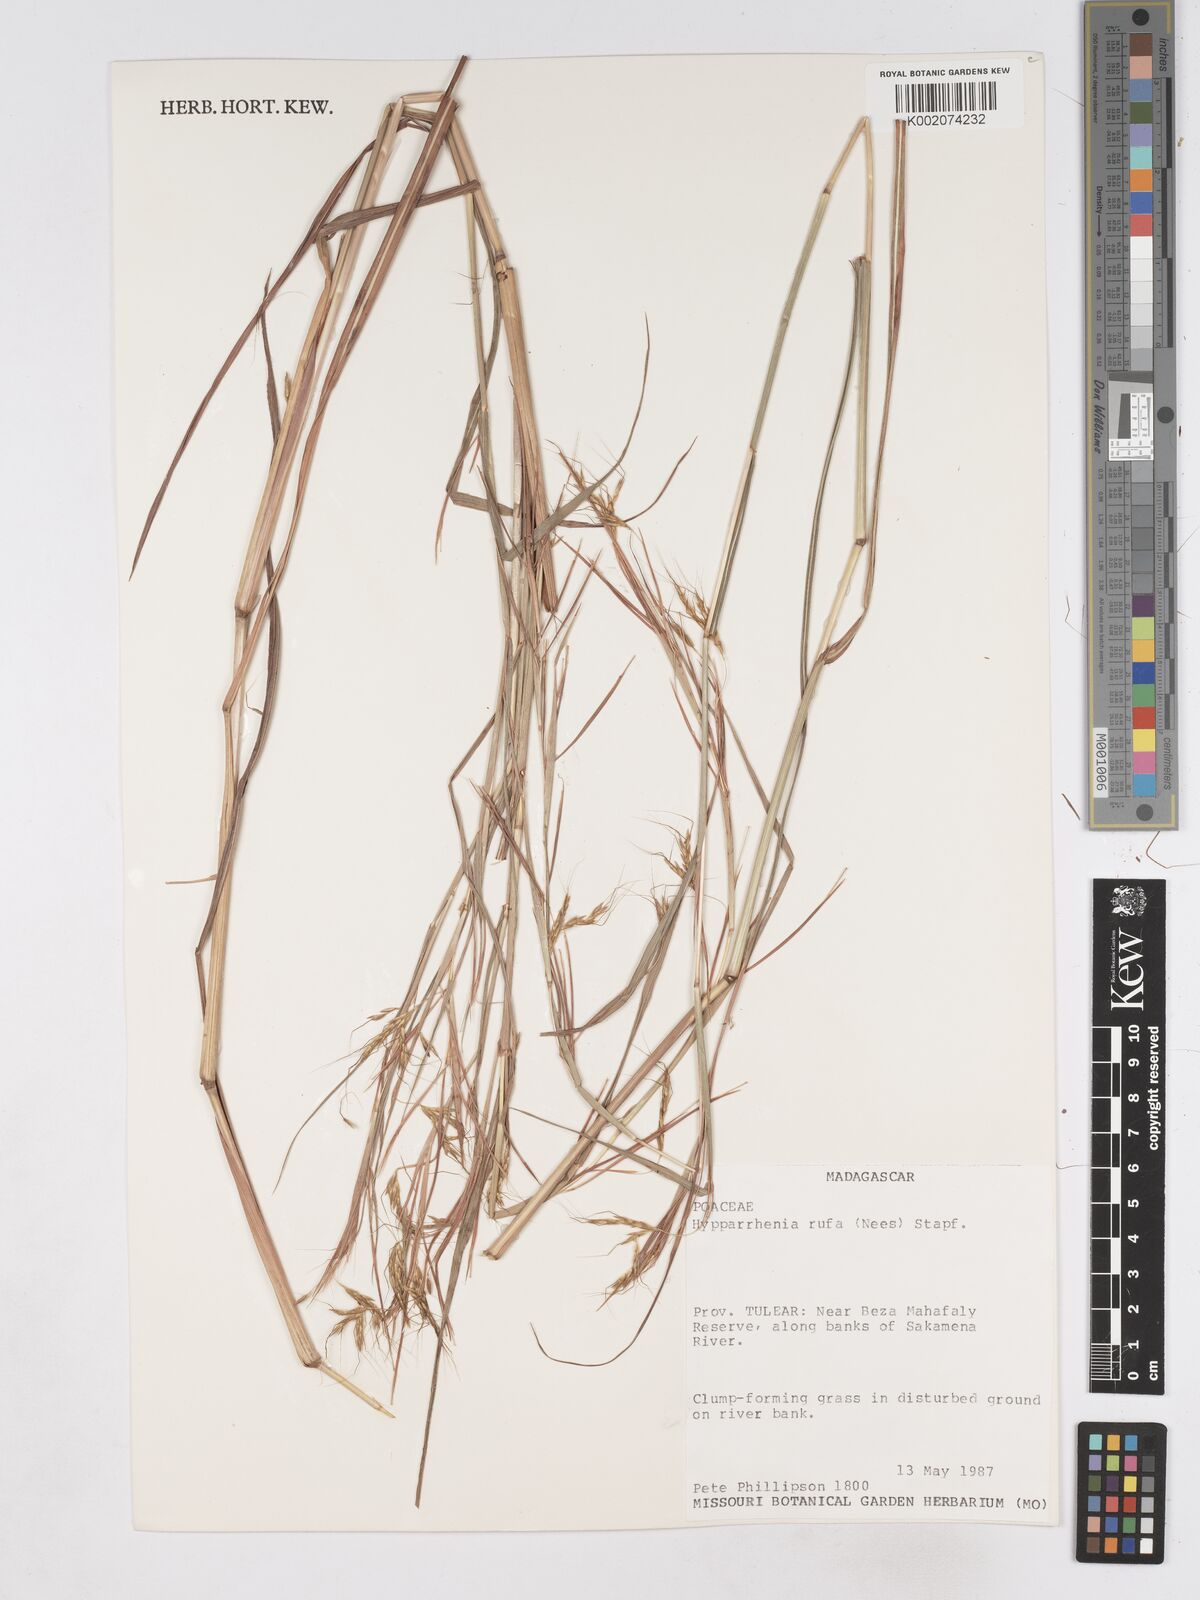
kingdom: Plantae
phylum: Tracheophyta
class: Liliopsida
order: Poales
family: Poaceae
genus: Hyparrhenia
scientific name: Hyparrhenia rufa
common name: Jaraguagrass
